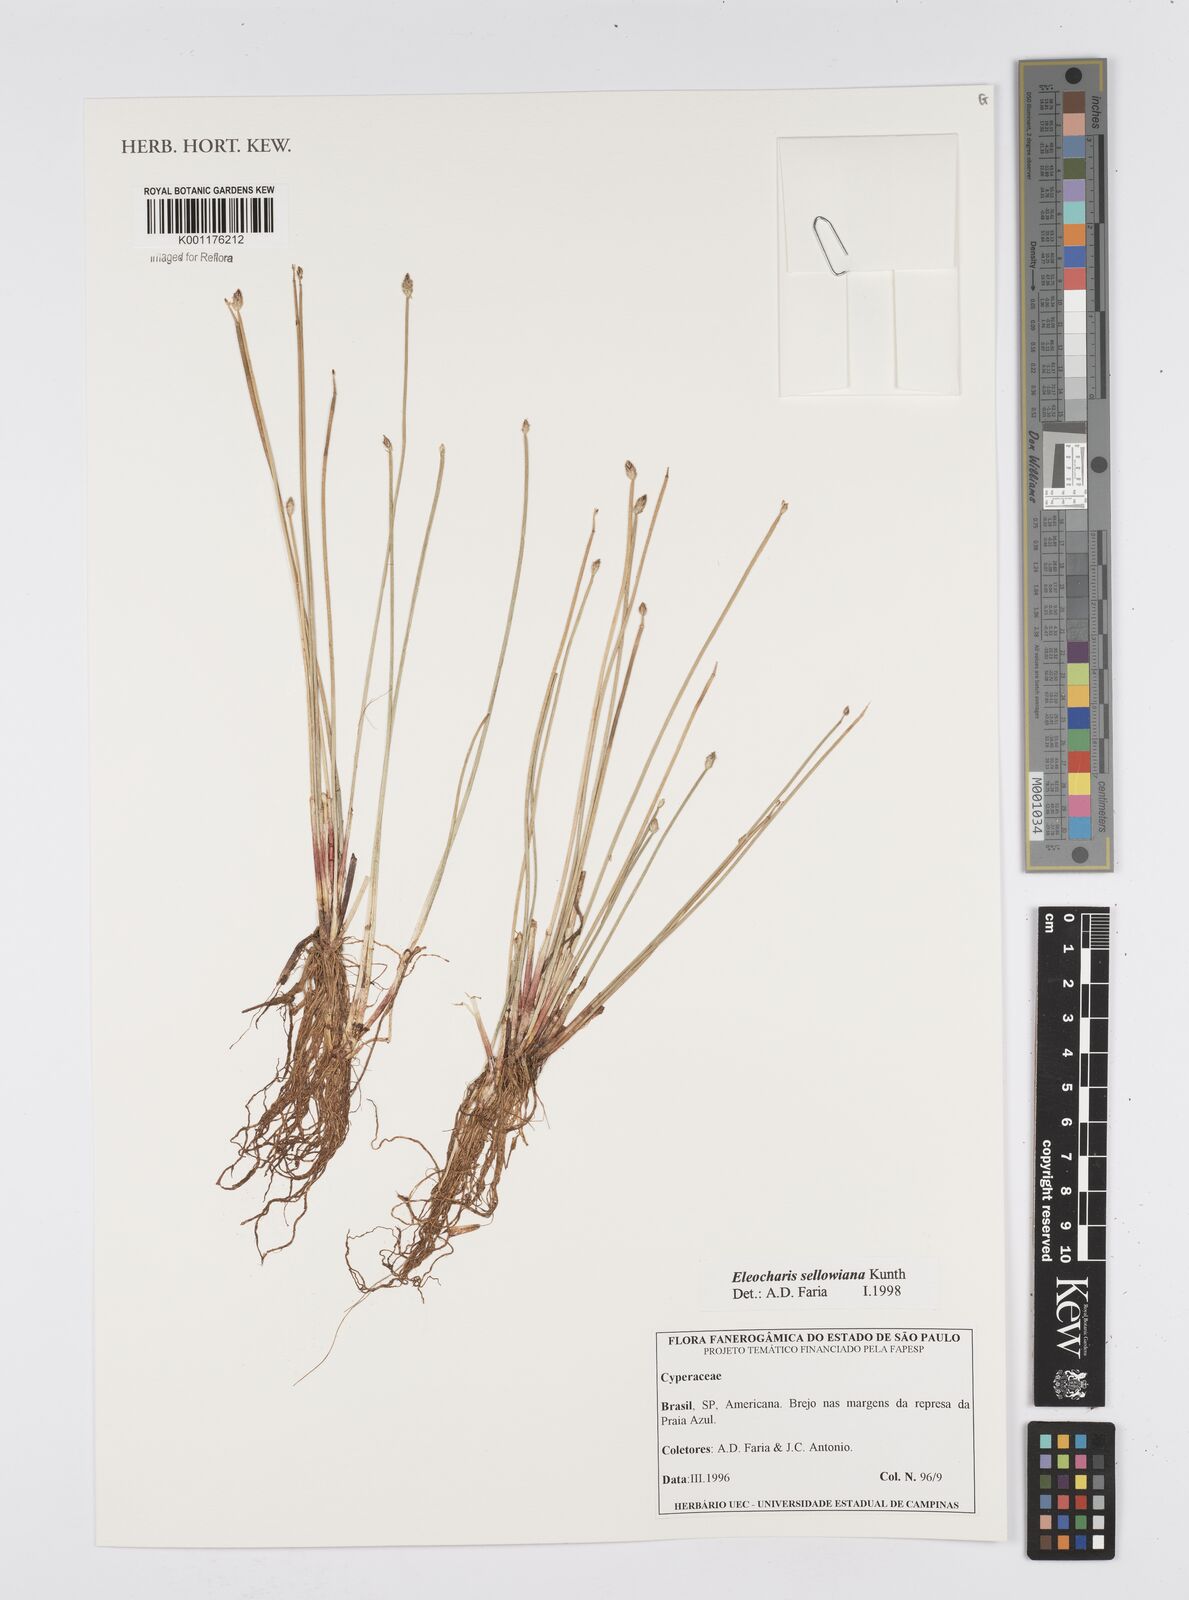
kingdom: Plantae
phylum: Tracheophyta
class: Liliopsida
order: Poales
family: Cyperaceae
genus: Eleocharis
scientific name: Eleocharis sellowiana
